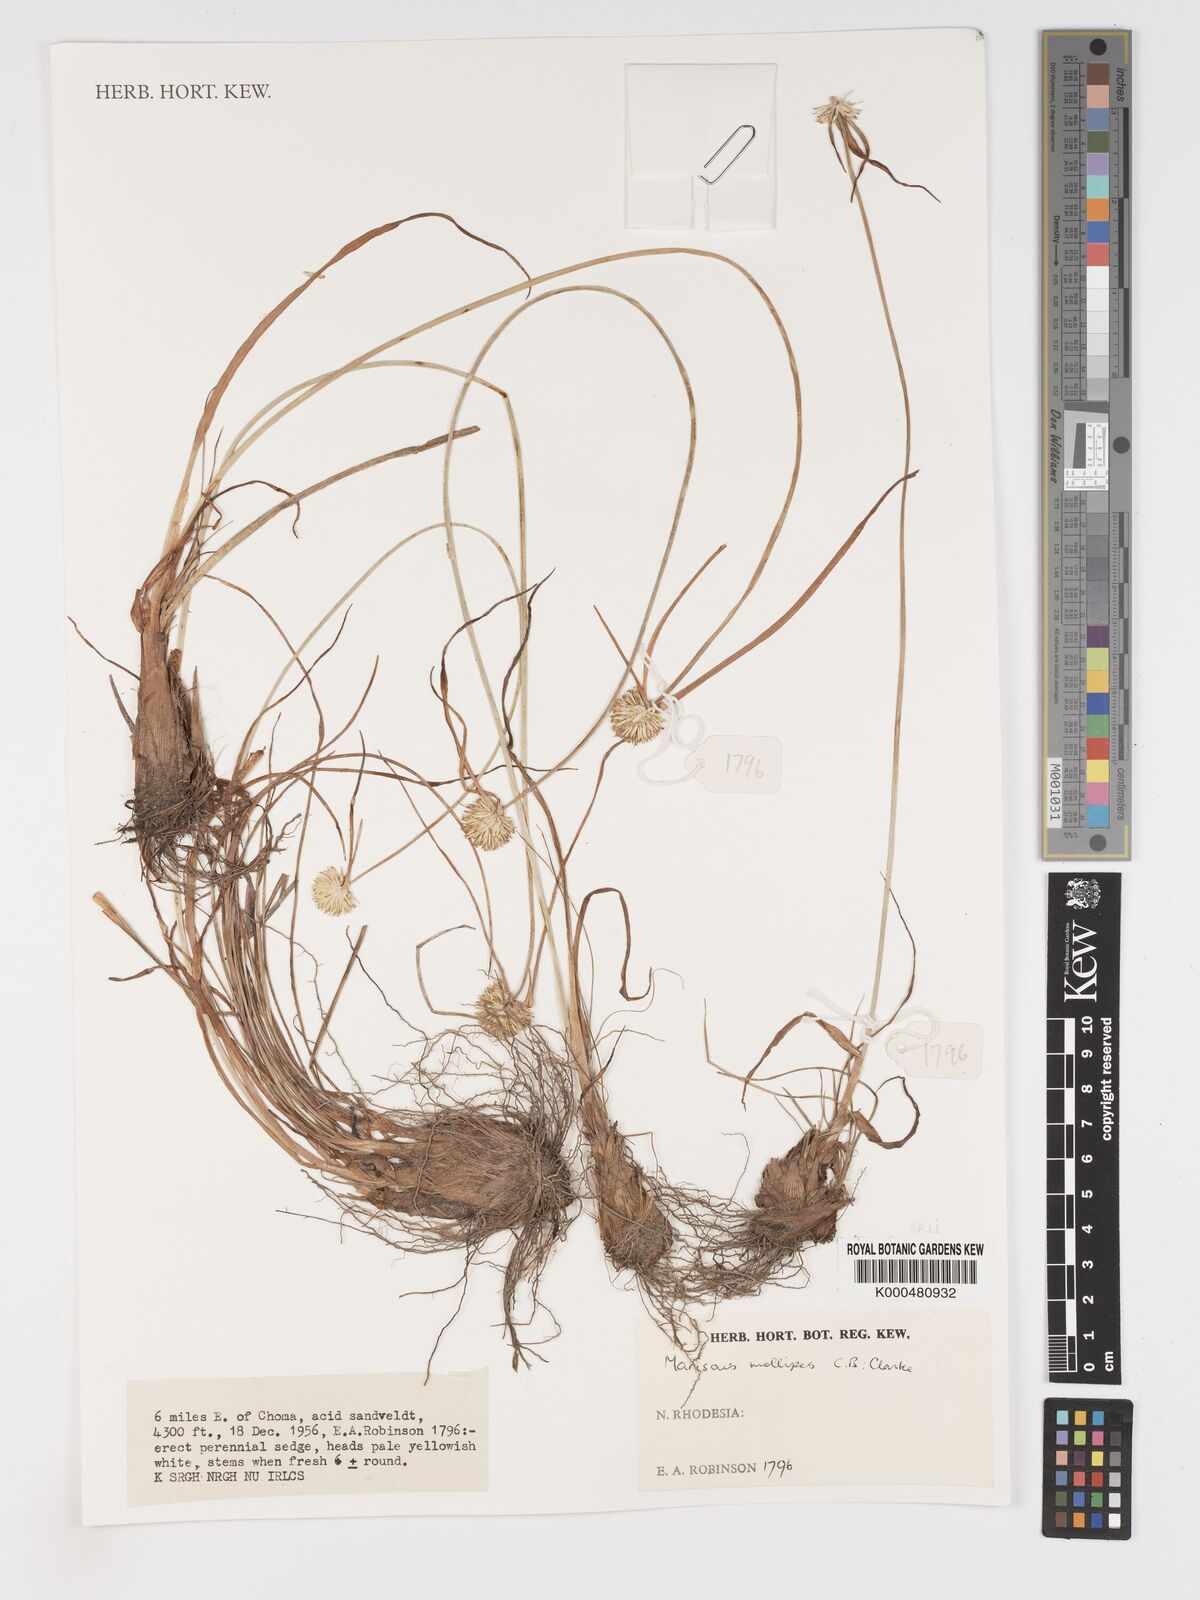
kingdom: Plantae
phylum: Tracheophyta
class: Liliopsida
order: Poales
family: Cyperaceae
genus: Cyperus
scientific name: Cyperus mollipes
